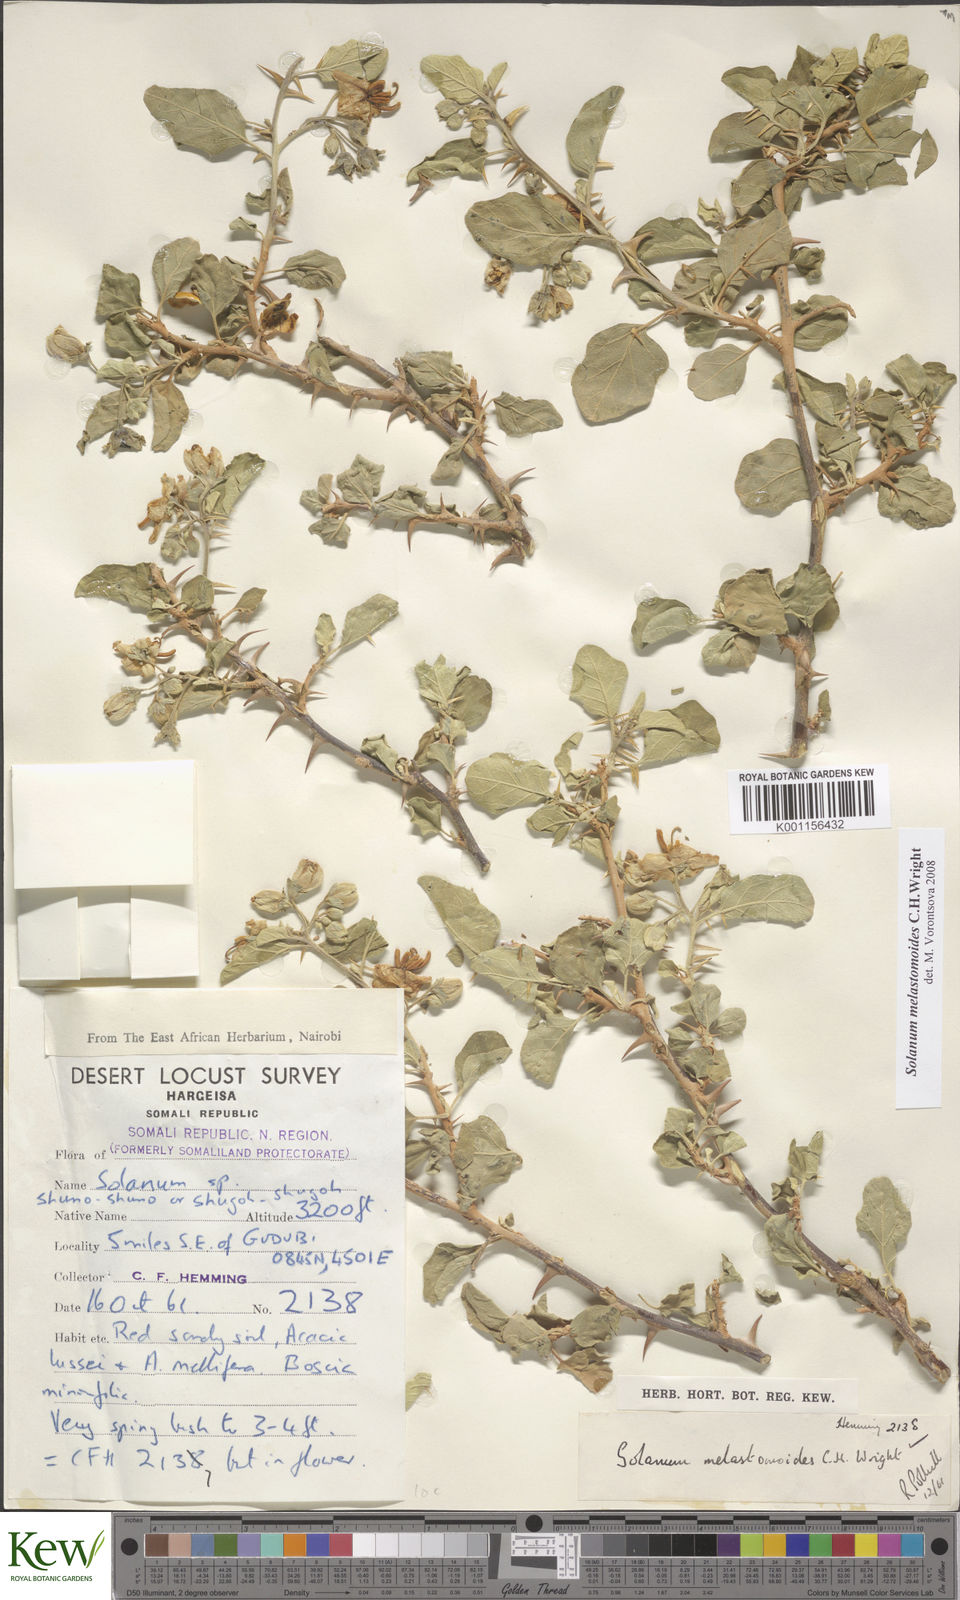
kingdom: Plantae
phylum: Tracheophyta
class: Magnoliopsida
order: Solanales
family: Solanaceae
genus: Solanum
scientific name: Solanum melastomoides
